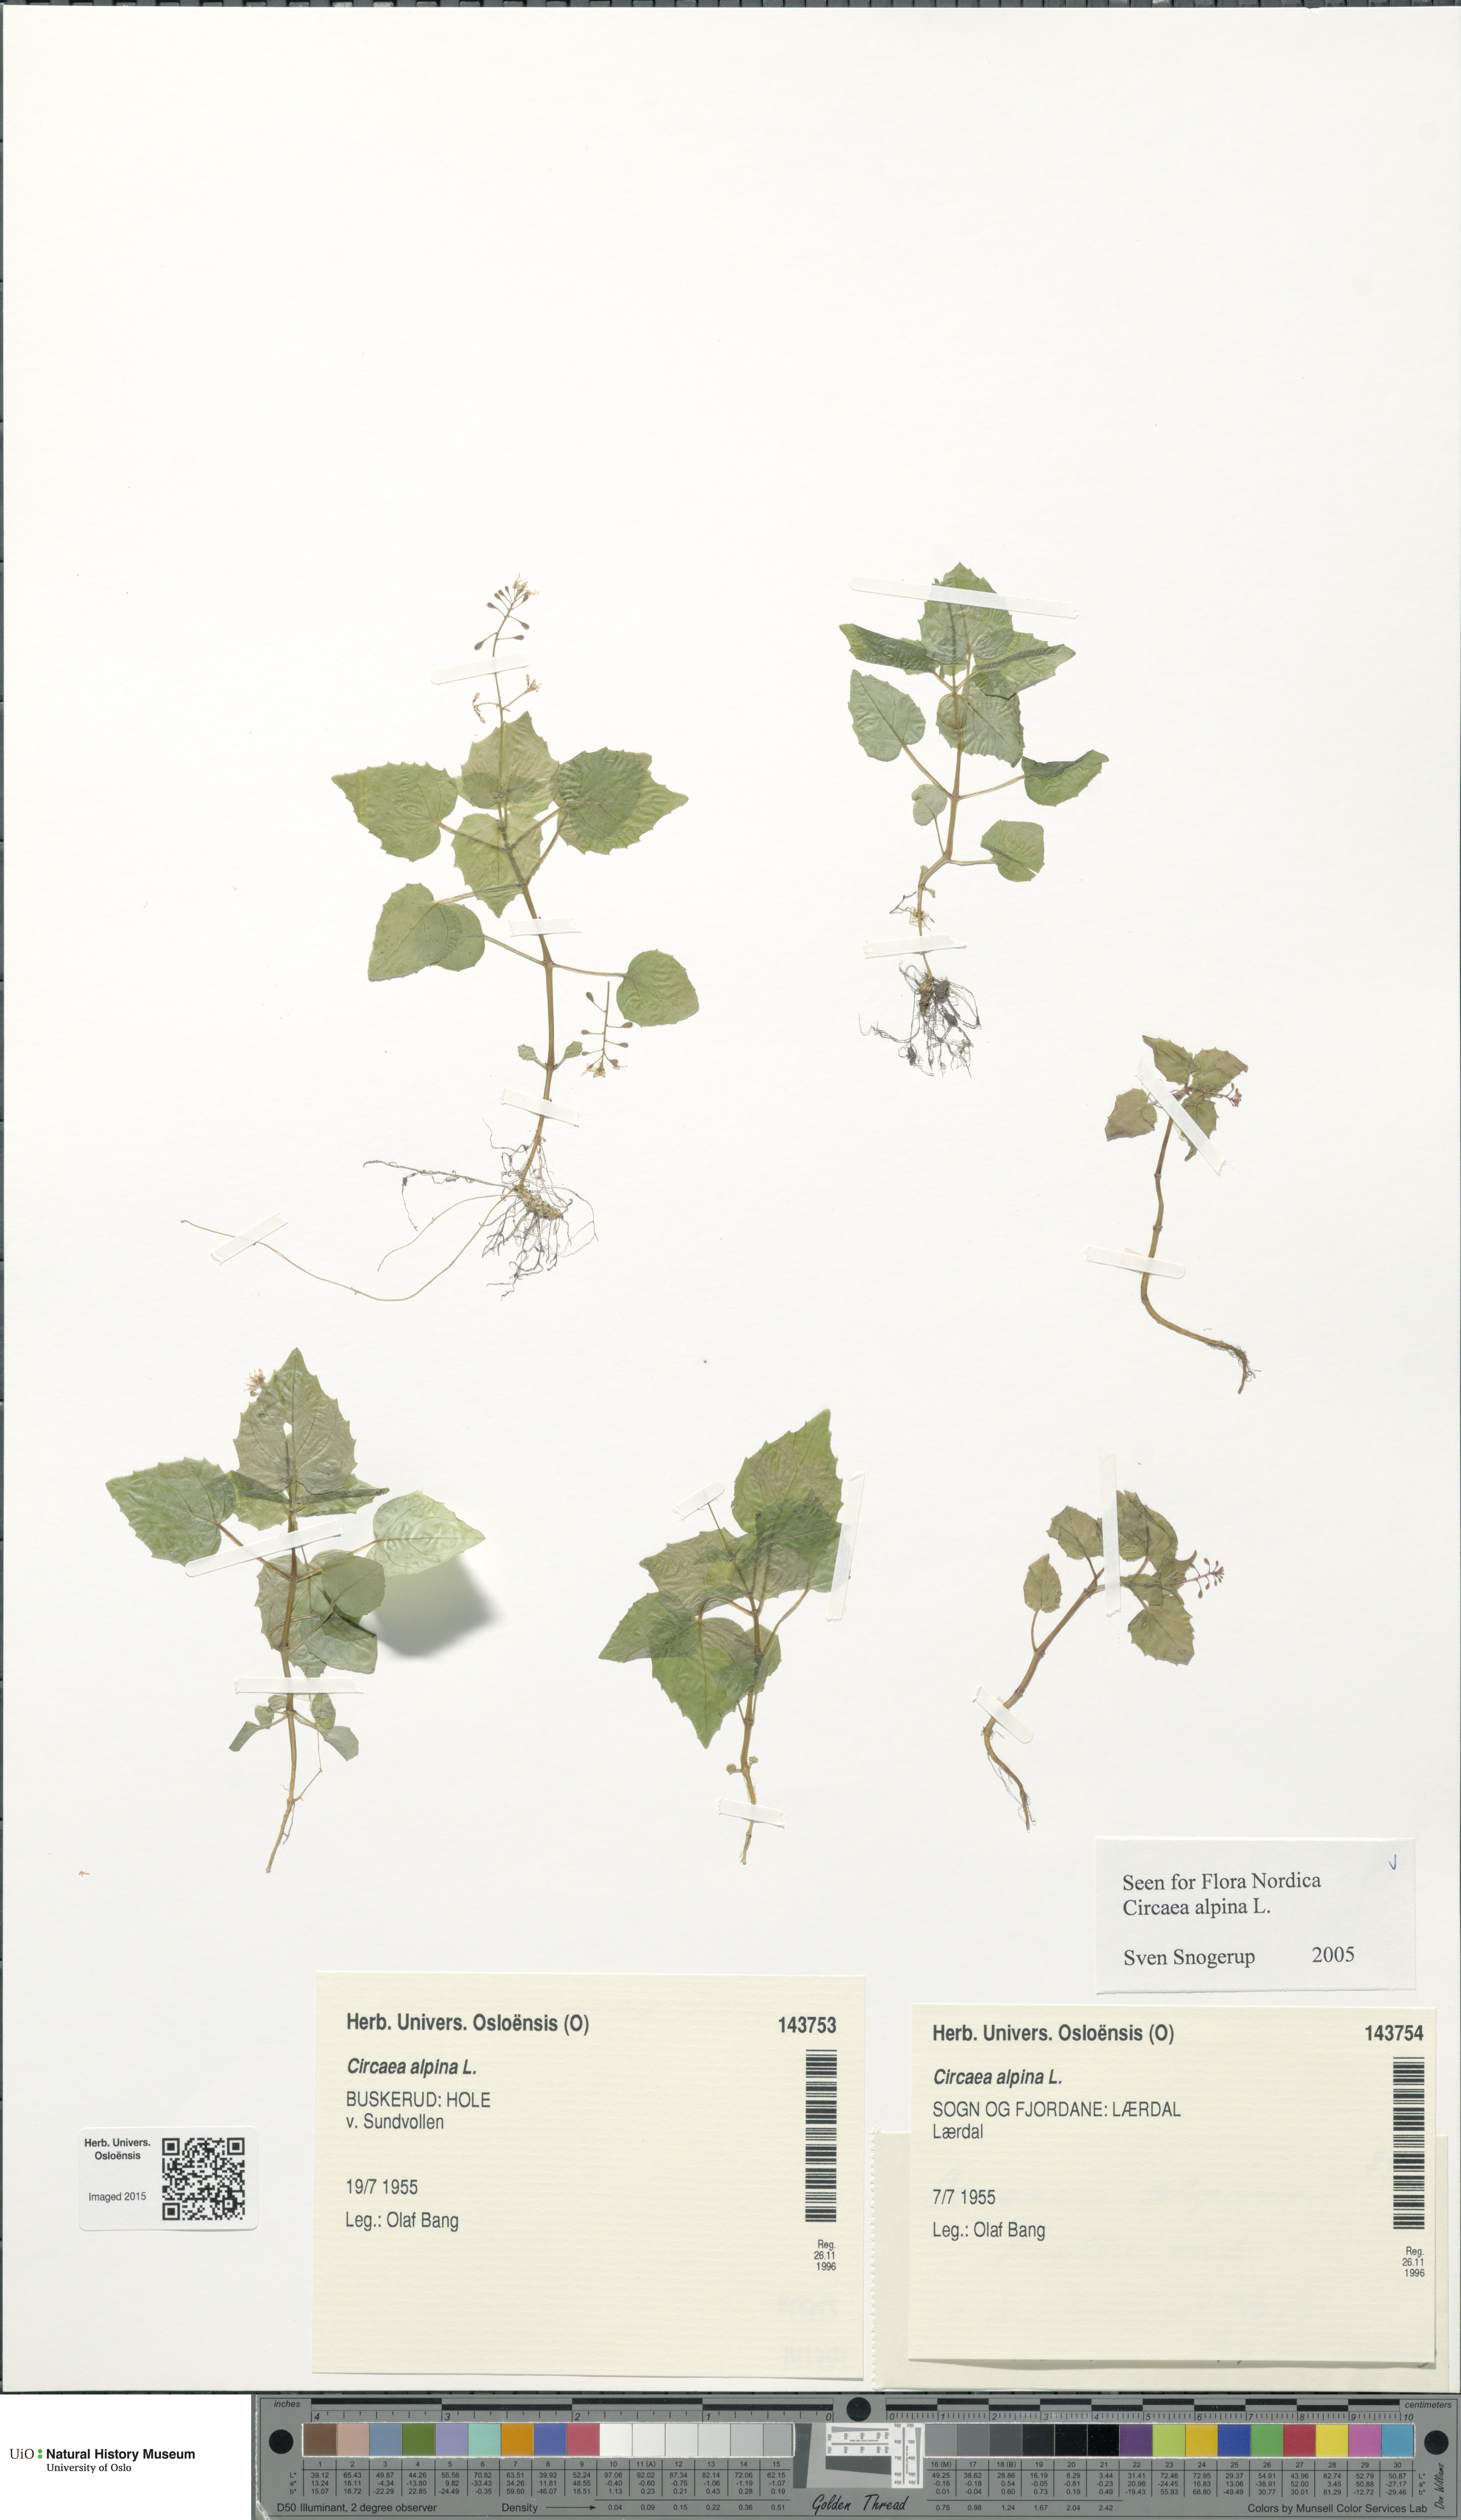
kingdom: Plantae
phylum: Tracheophyta
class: Magnoliopsida
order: Myrtales
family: Onagraceae
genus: Circaea
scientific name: Circaea alpina
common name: Alpine enchanter's-nightshade
